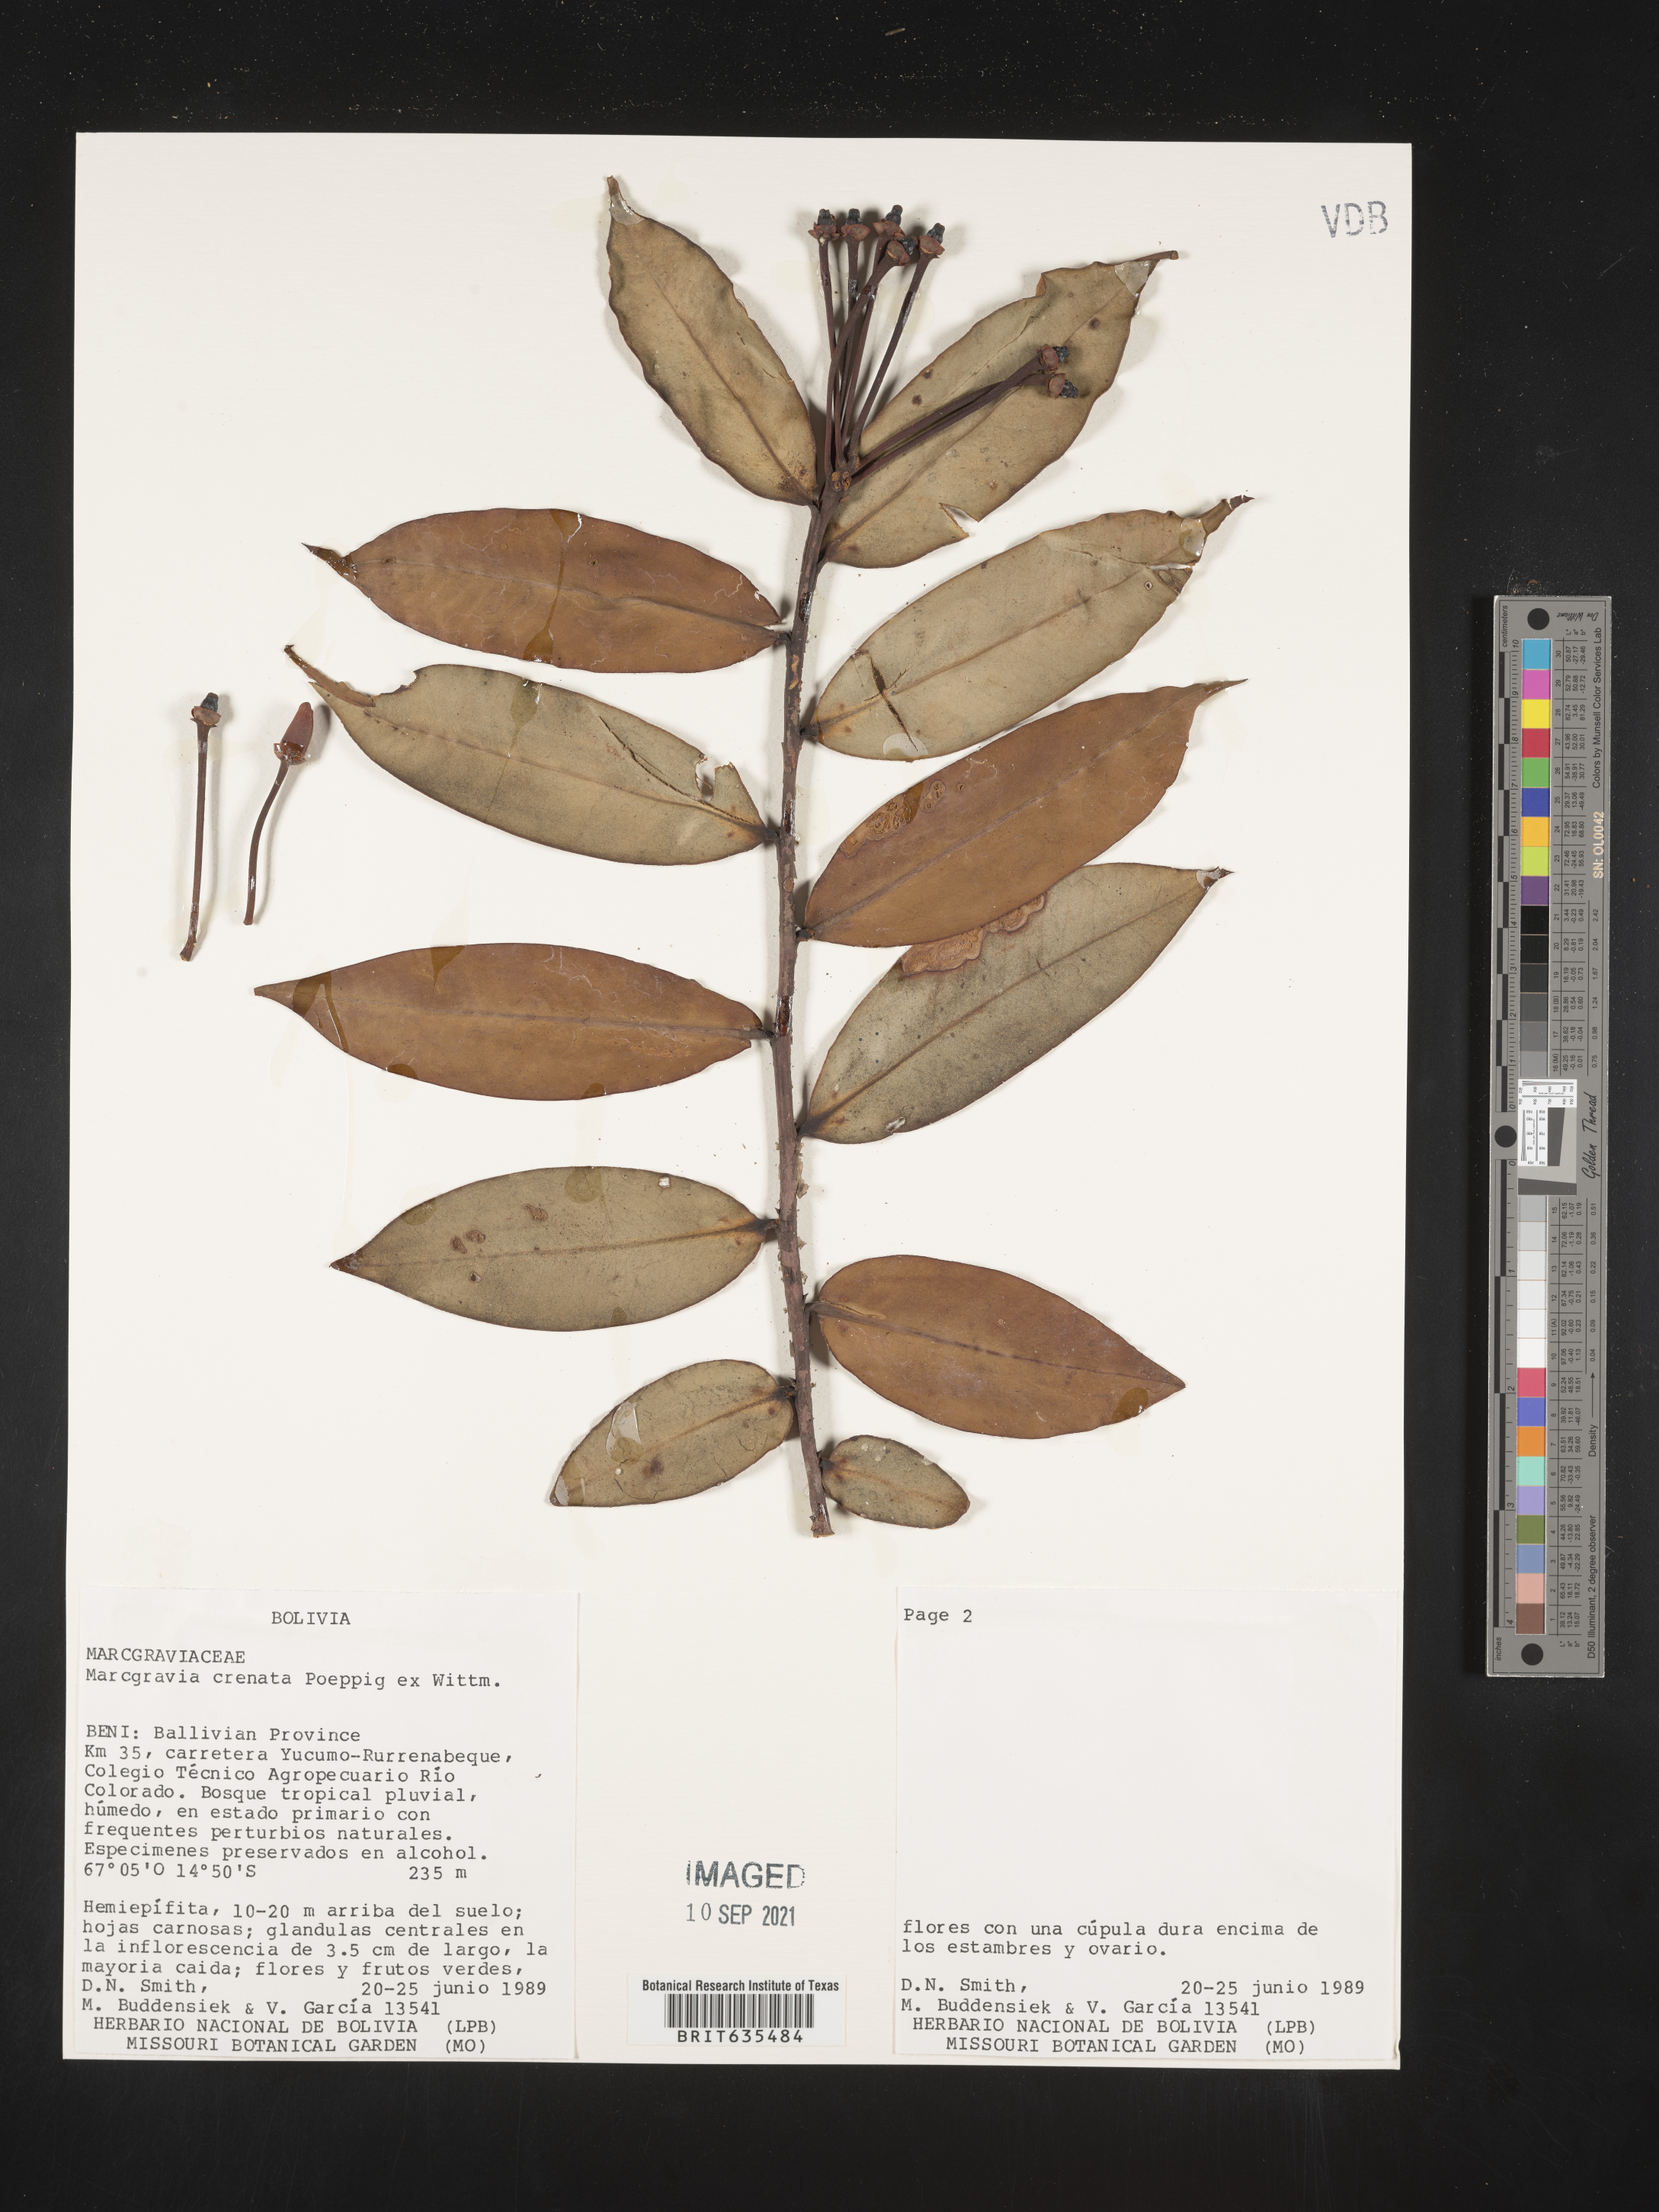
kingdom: Plantae
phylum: Tracheophyta
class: Magnoliopsida
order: Ericales
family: Marcgraviaceae
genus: Marcgravia
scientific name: Marcgravia
